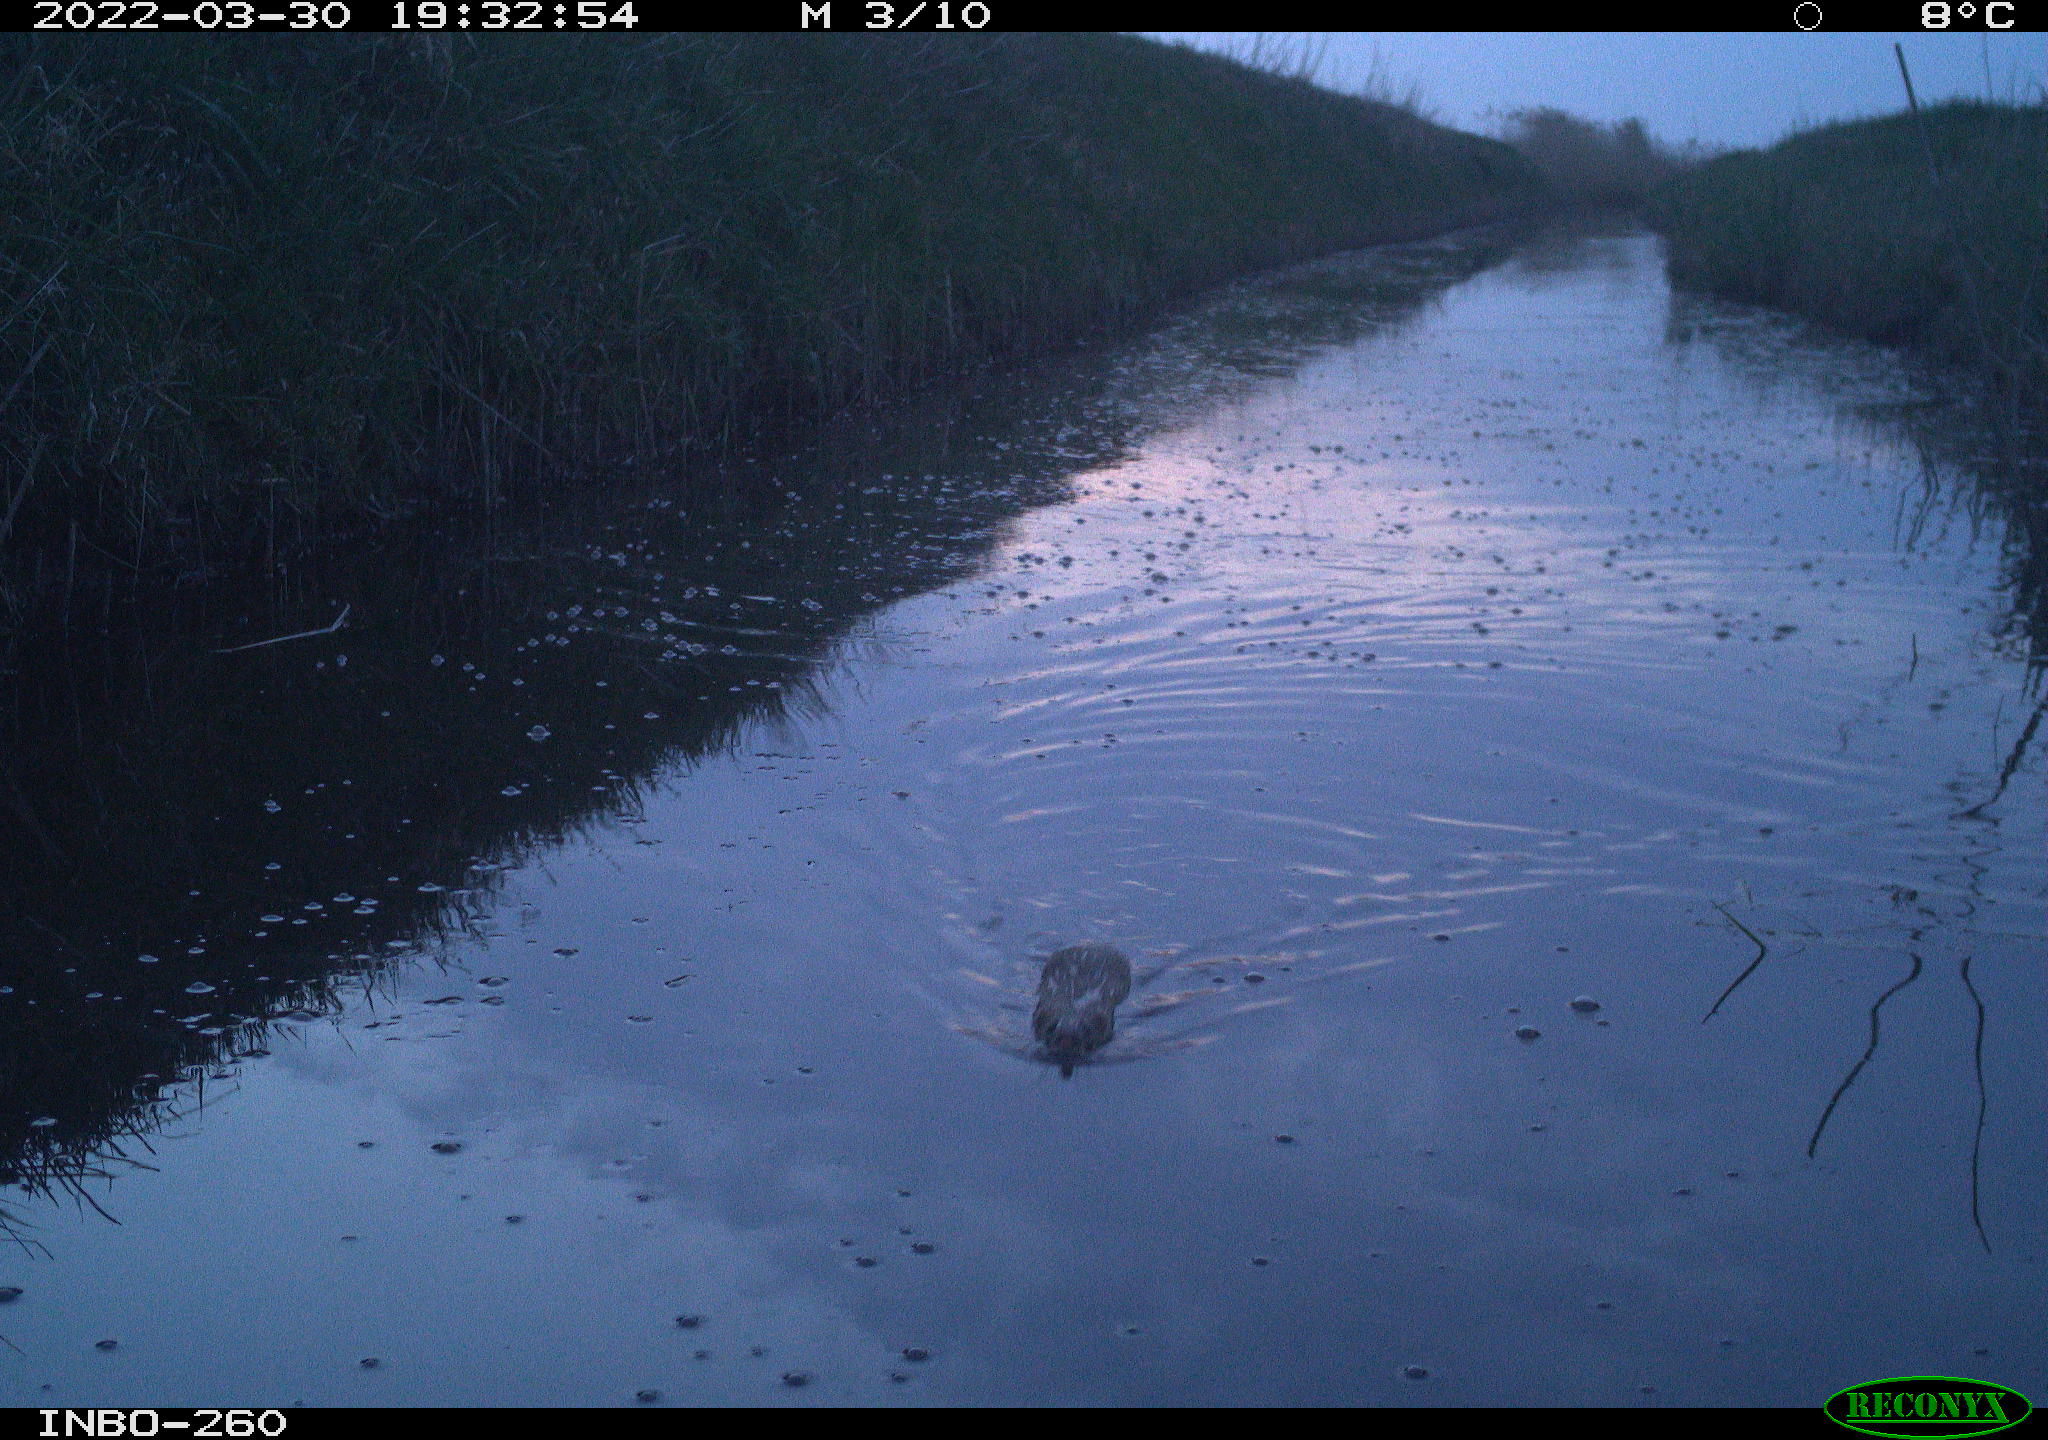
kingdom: Animalia
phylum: Chordata
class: Mammalia
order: Rodentia
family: Muridae
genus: Rattus
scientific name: Rattus norvegicus
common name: Brown rat
